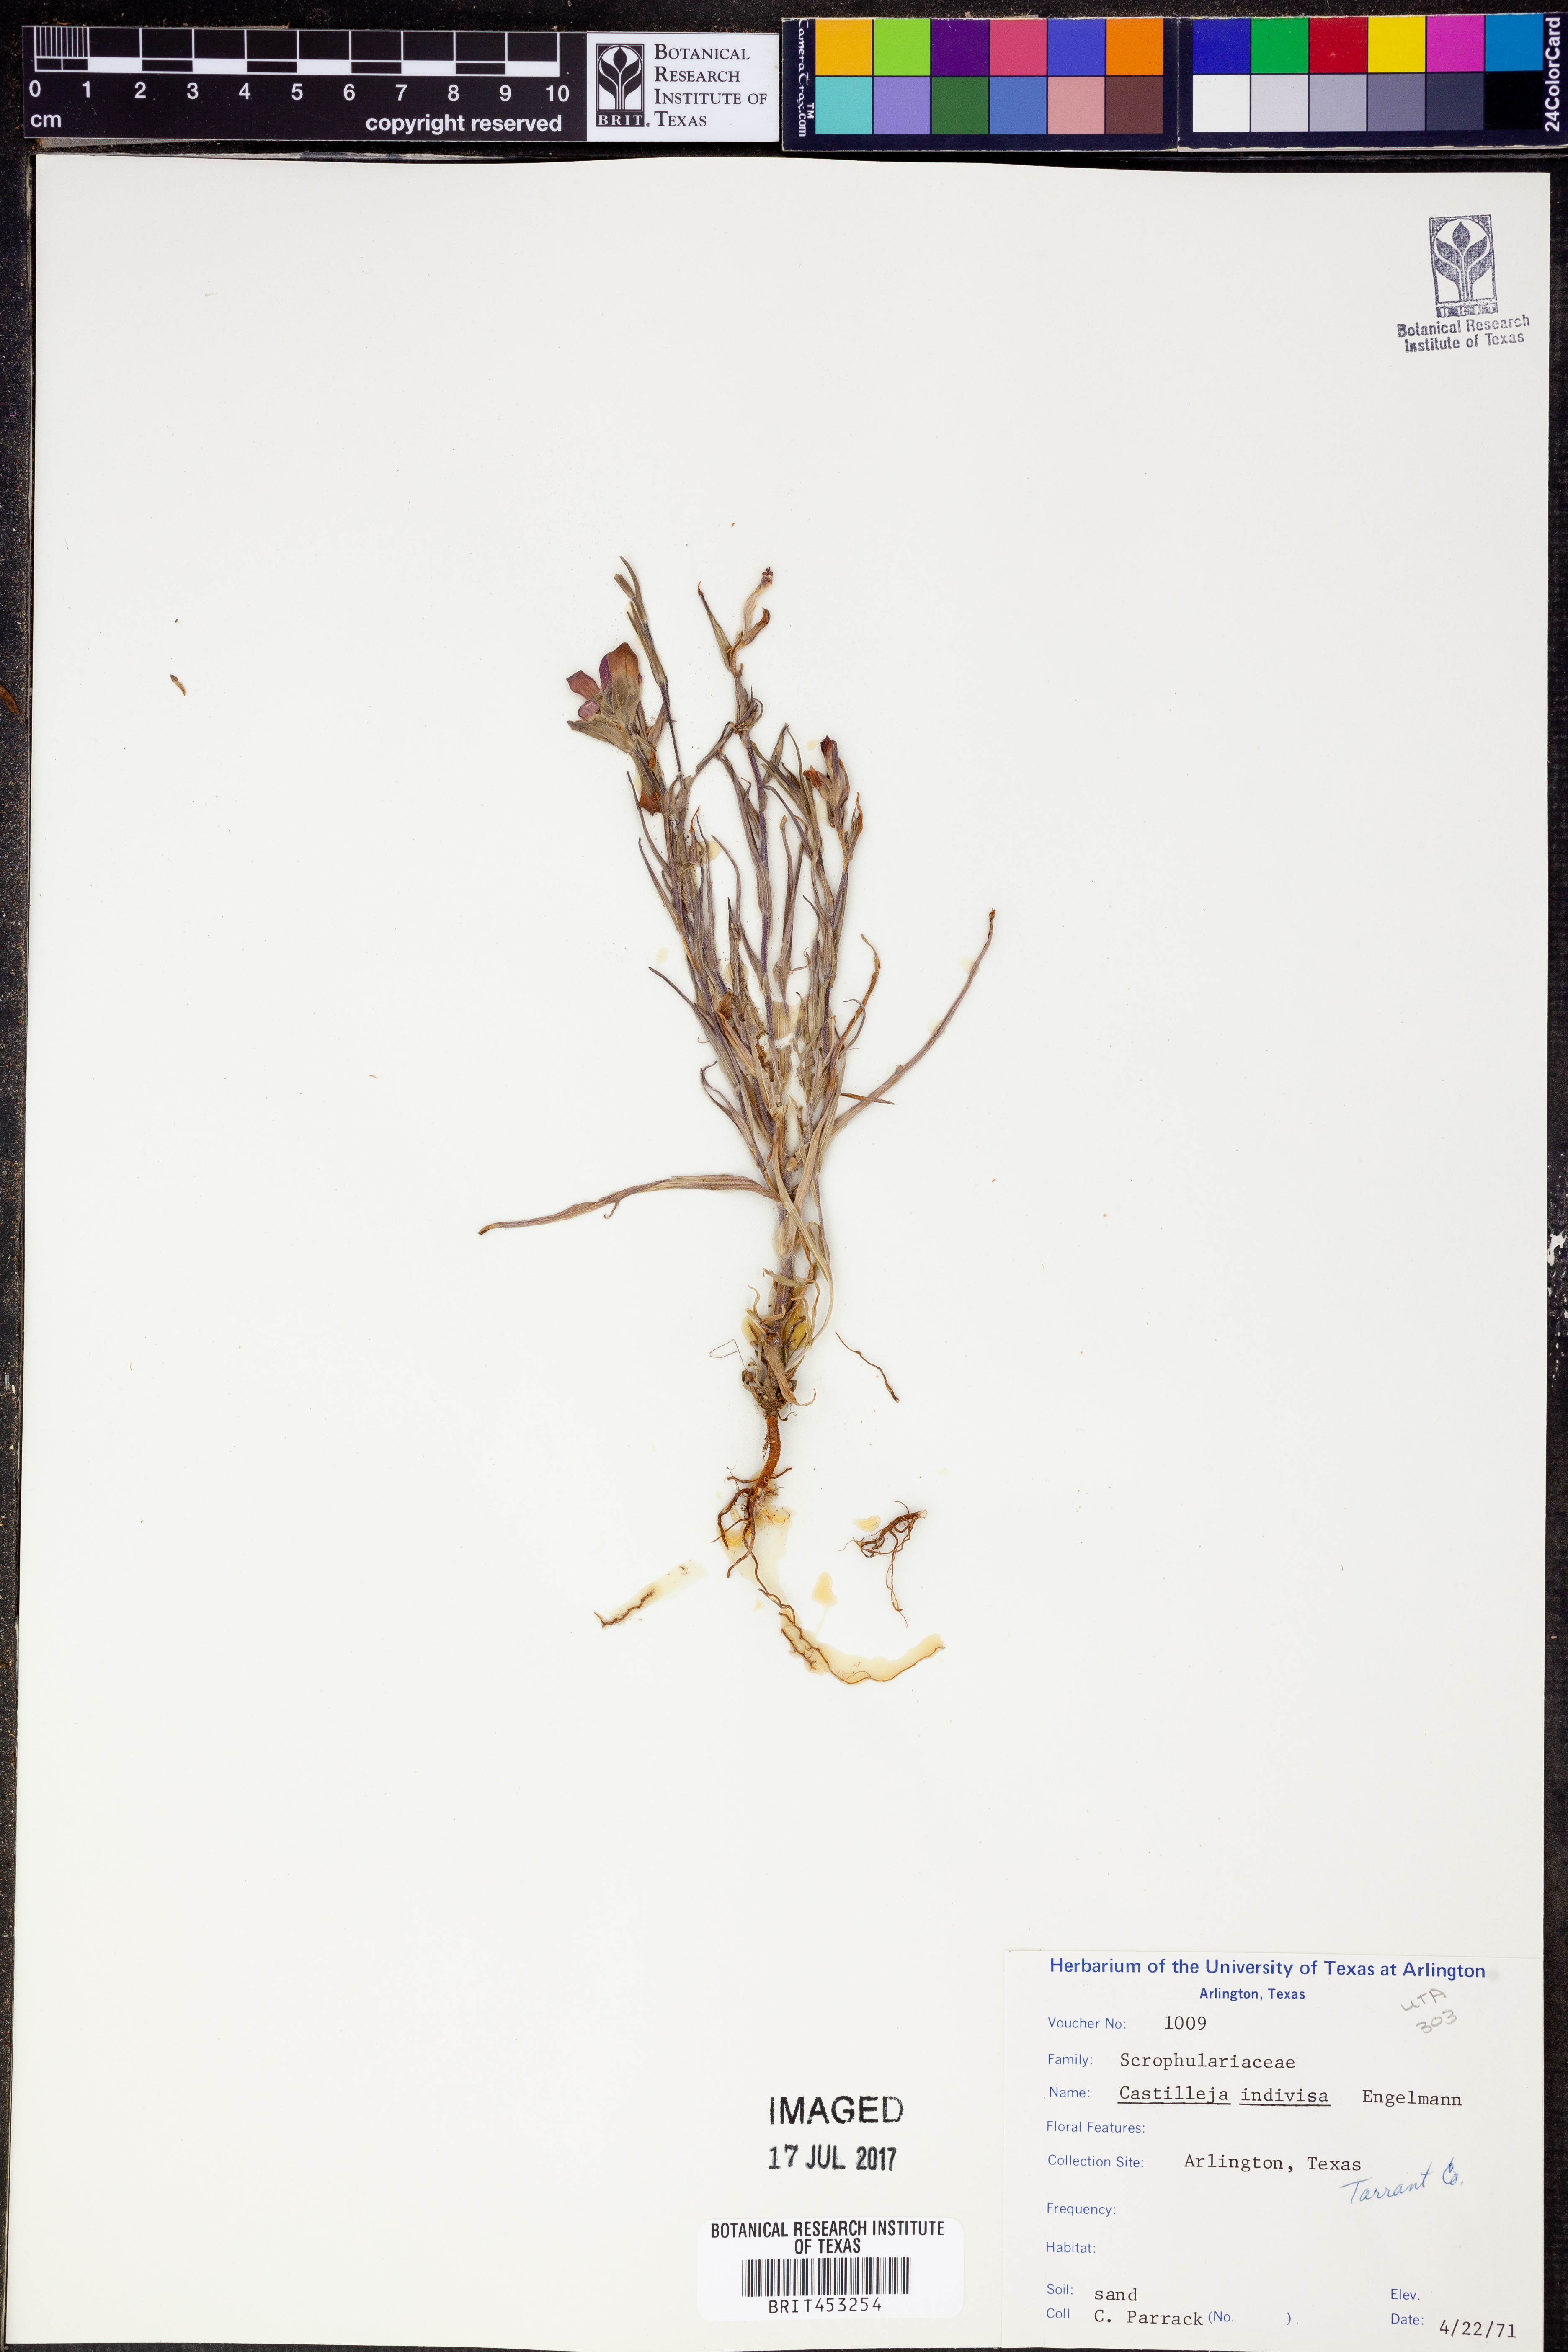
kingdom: Plantae
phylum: Tracheophyta
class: Magnoliopsida
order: Lamiales
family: Orobanchaceae
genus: Castilleja
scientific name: Castilleja indivisa
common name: Texas paintbrush
